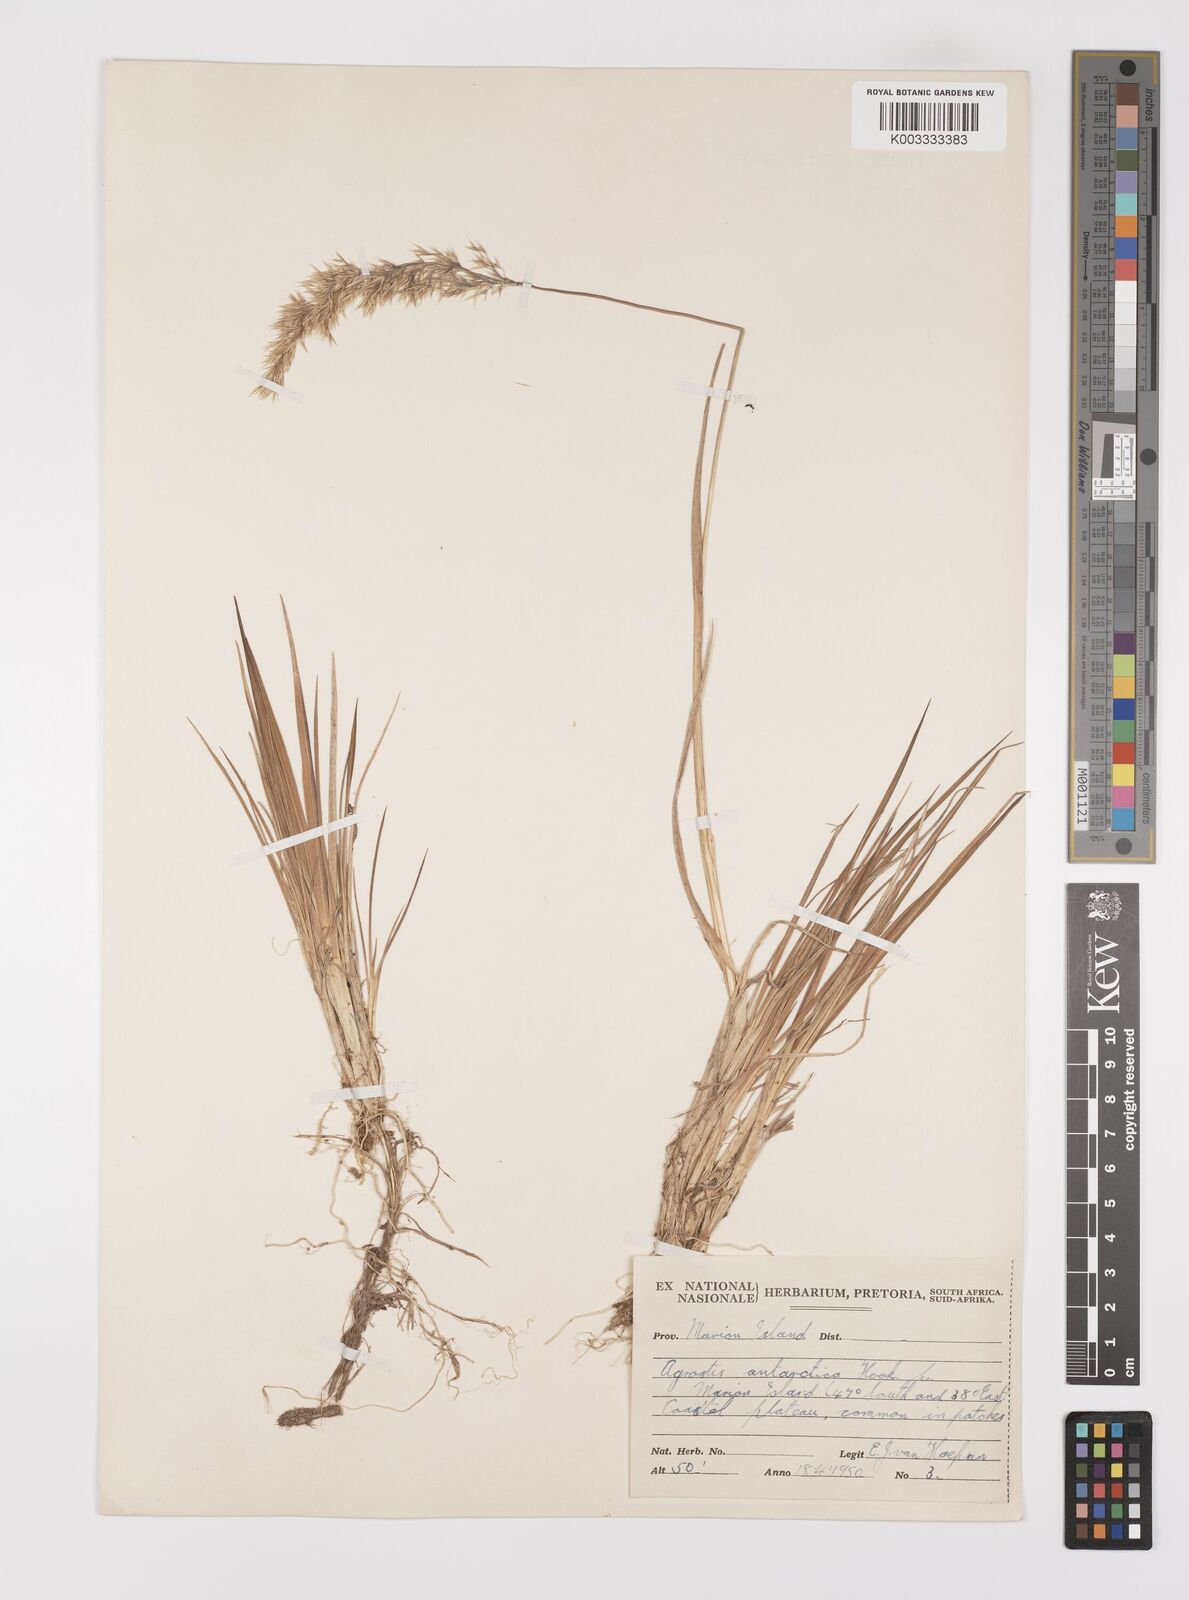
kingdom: Plantae
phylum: Tracheophyta
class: Liliopsida
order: Poales
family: Poaceae
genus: Polypogon
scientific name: Polypogon magellanicus
